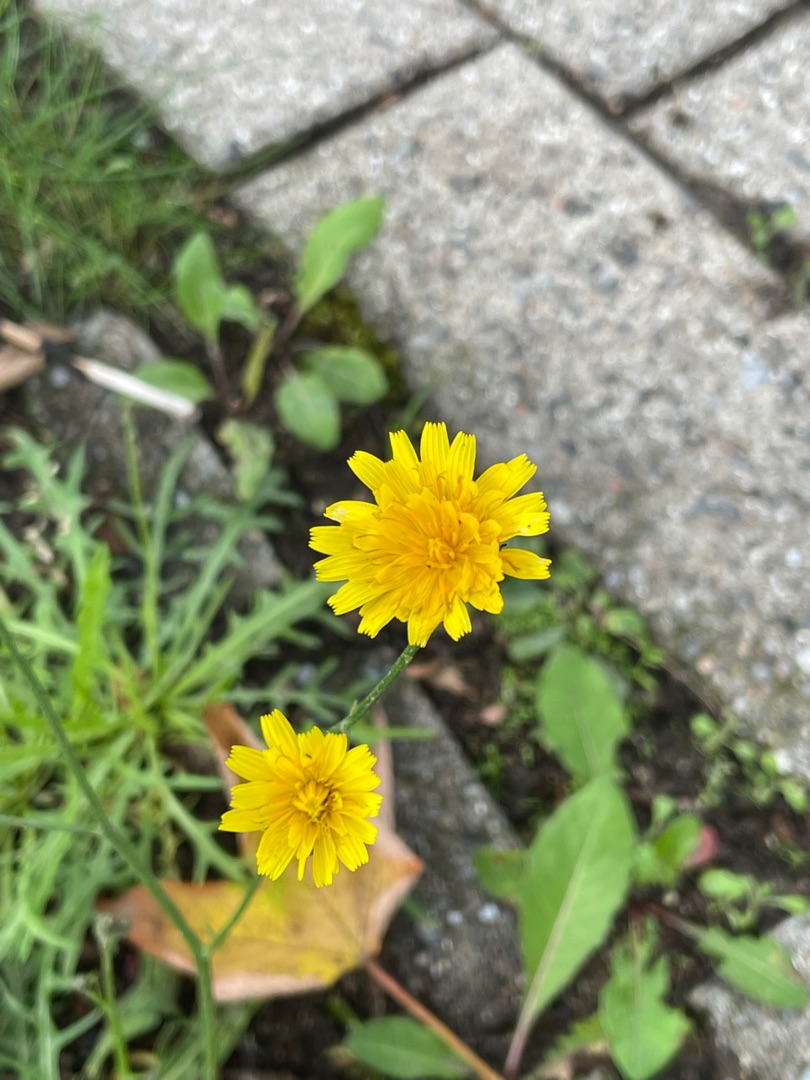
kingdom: Plantae
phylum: Tracheophyta
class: Magnoliopsida
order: Asterales
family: Asteraceae
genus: Scorzoneroides
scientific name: Scorzoneroides autumnalis
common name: Høst-borst
